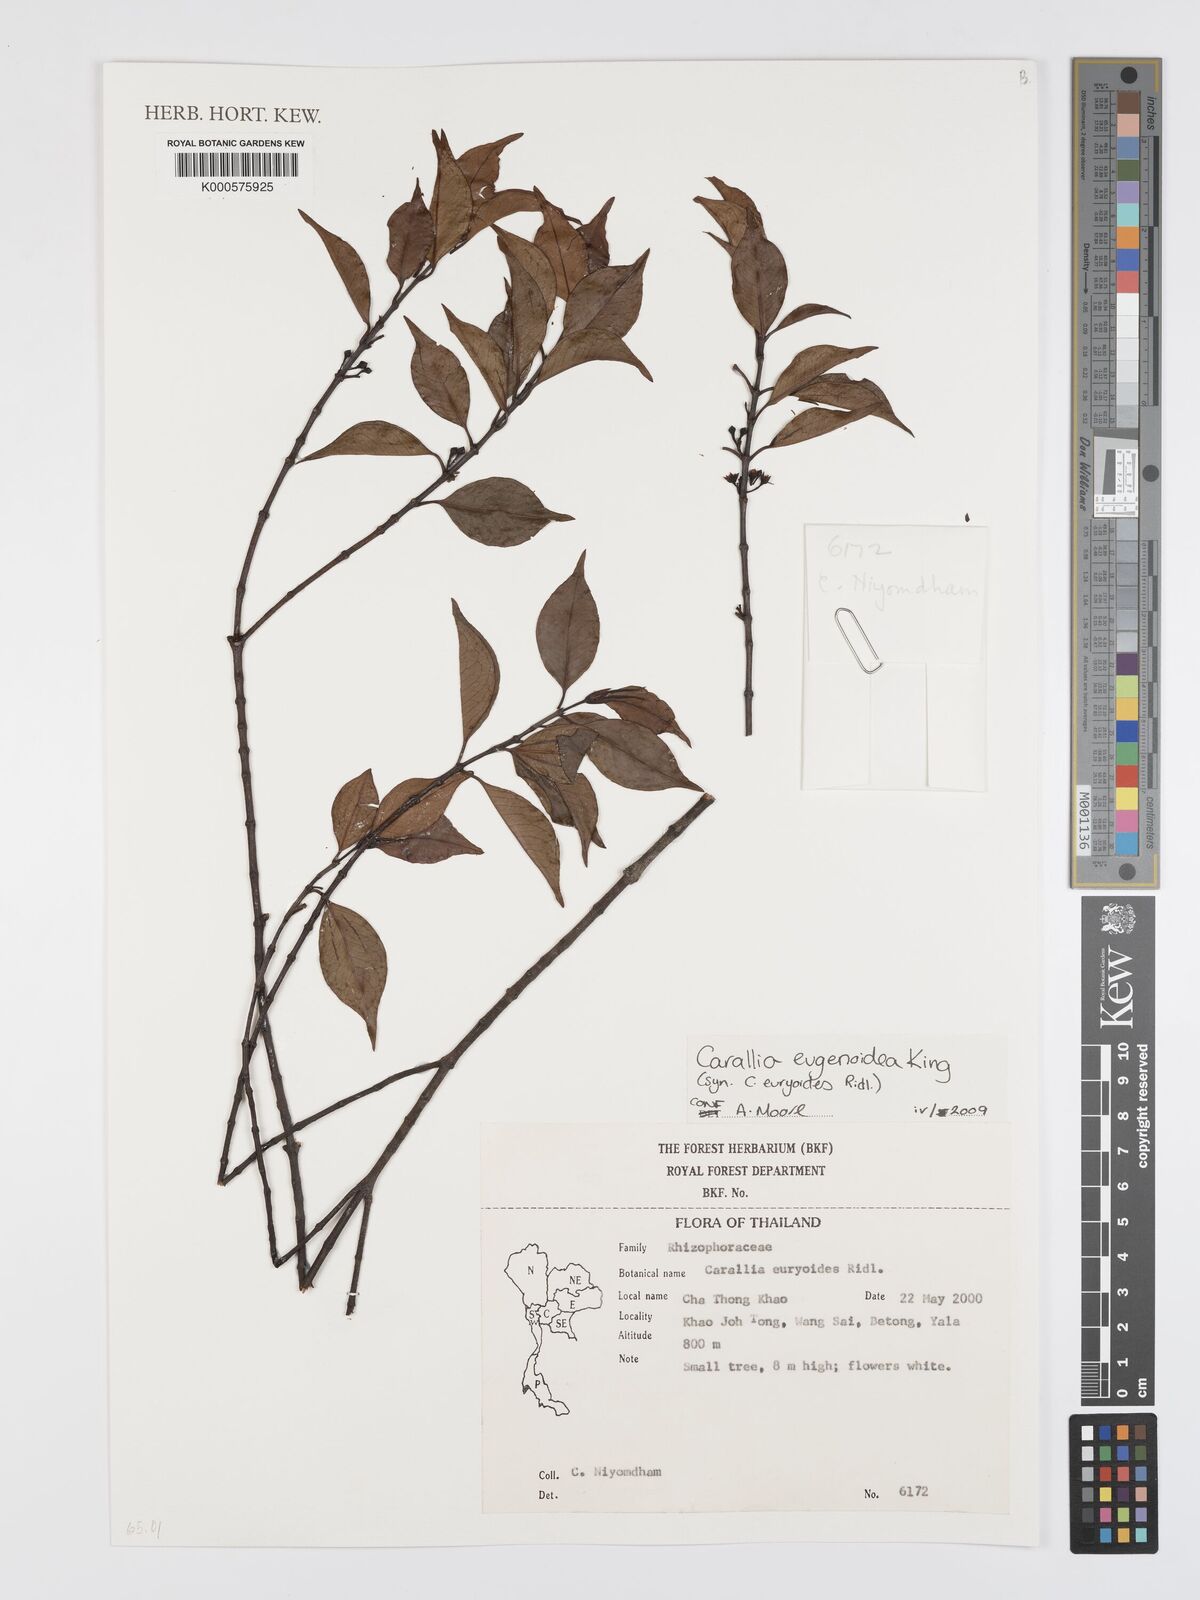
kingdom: Plantae
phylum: Tracheophyta
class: Magnoliopsida
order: Malpighiales
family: Rhizophoraceae
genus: Carallia
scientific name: Carallia
